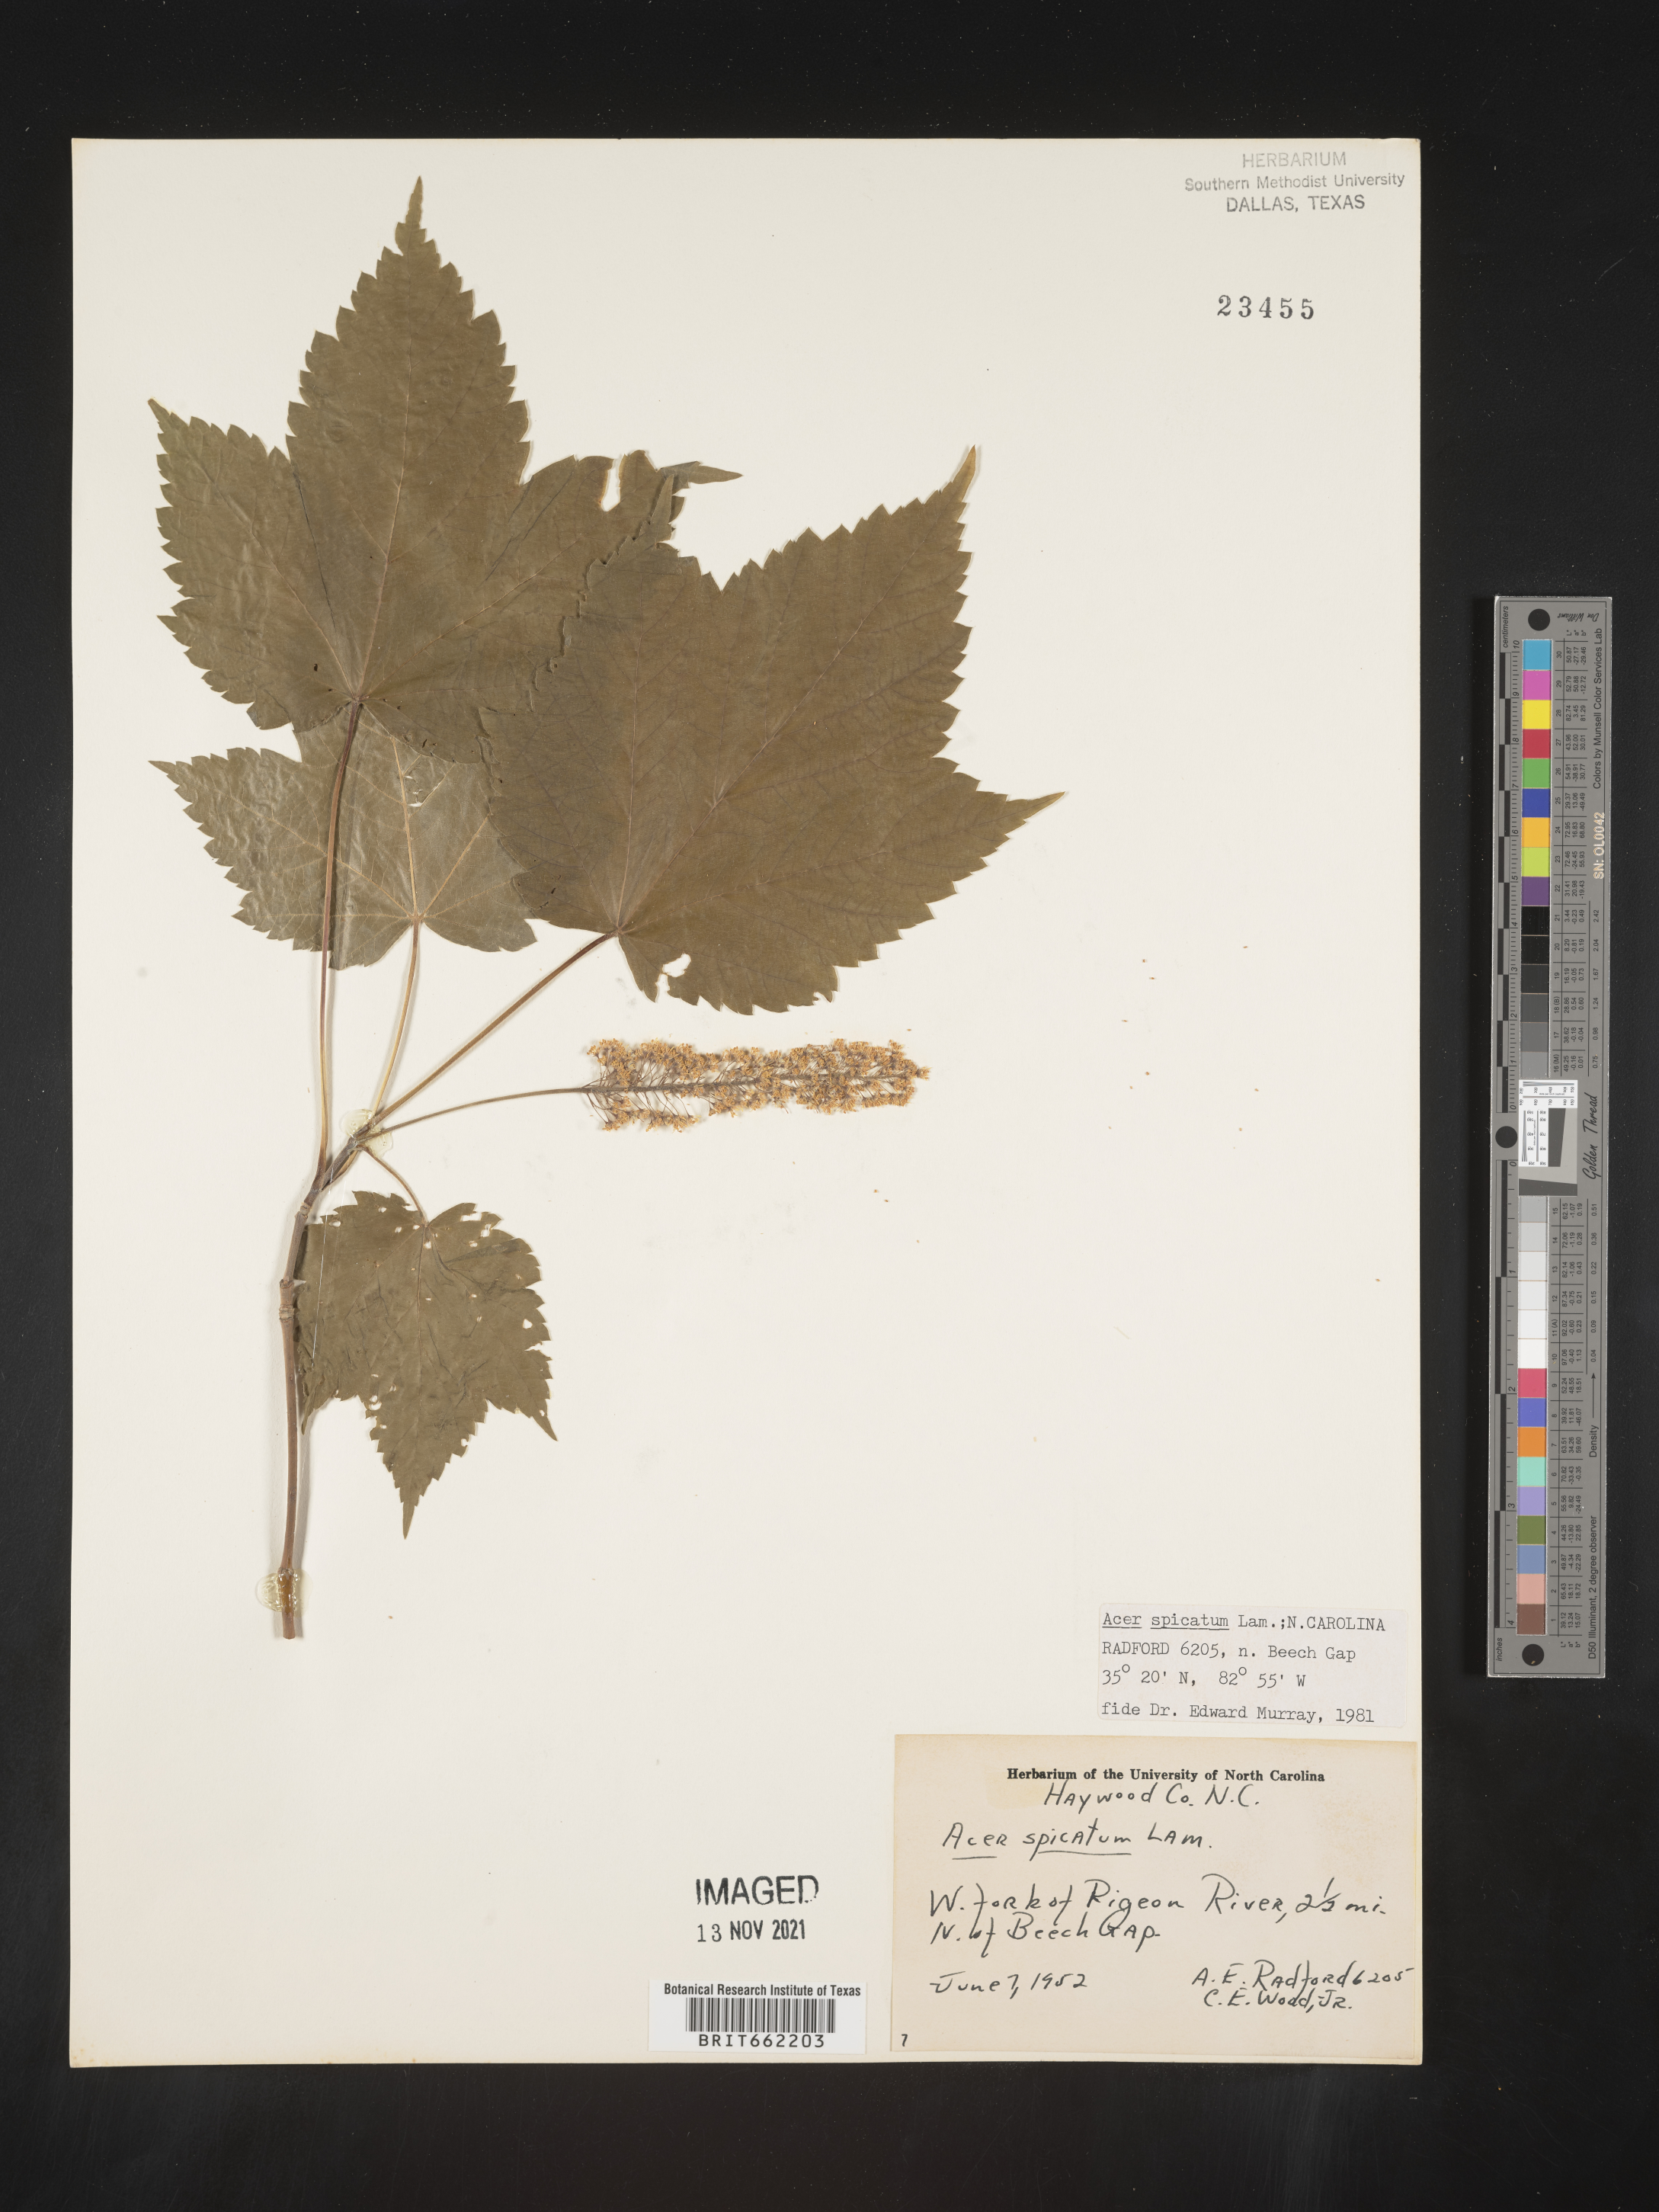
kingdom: Plantae
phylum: Tracheophyta
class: Magnoliopsida
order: Sapindales
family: Sapindaceae
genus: Acer
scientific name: Acer spicatum
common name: Mountain maple
